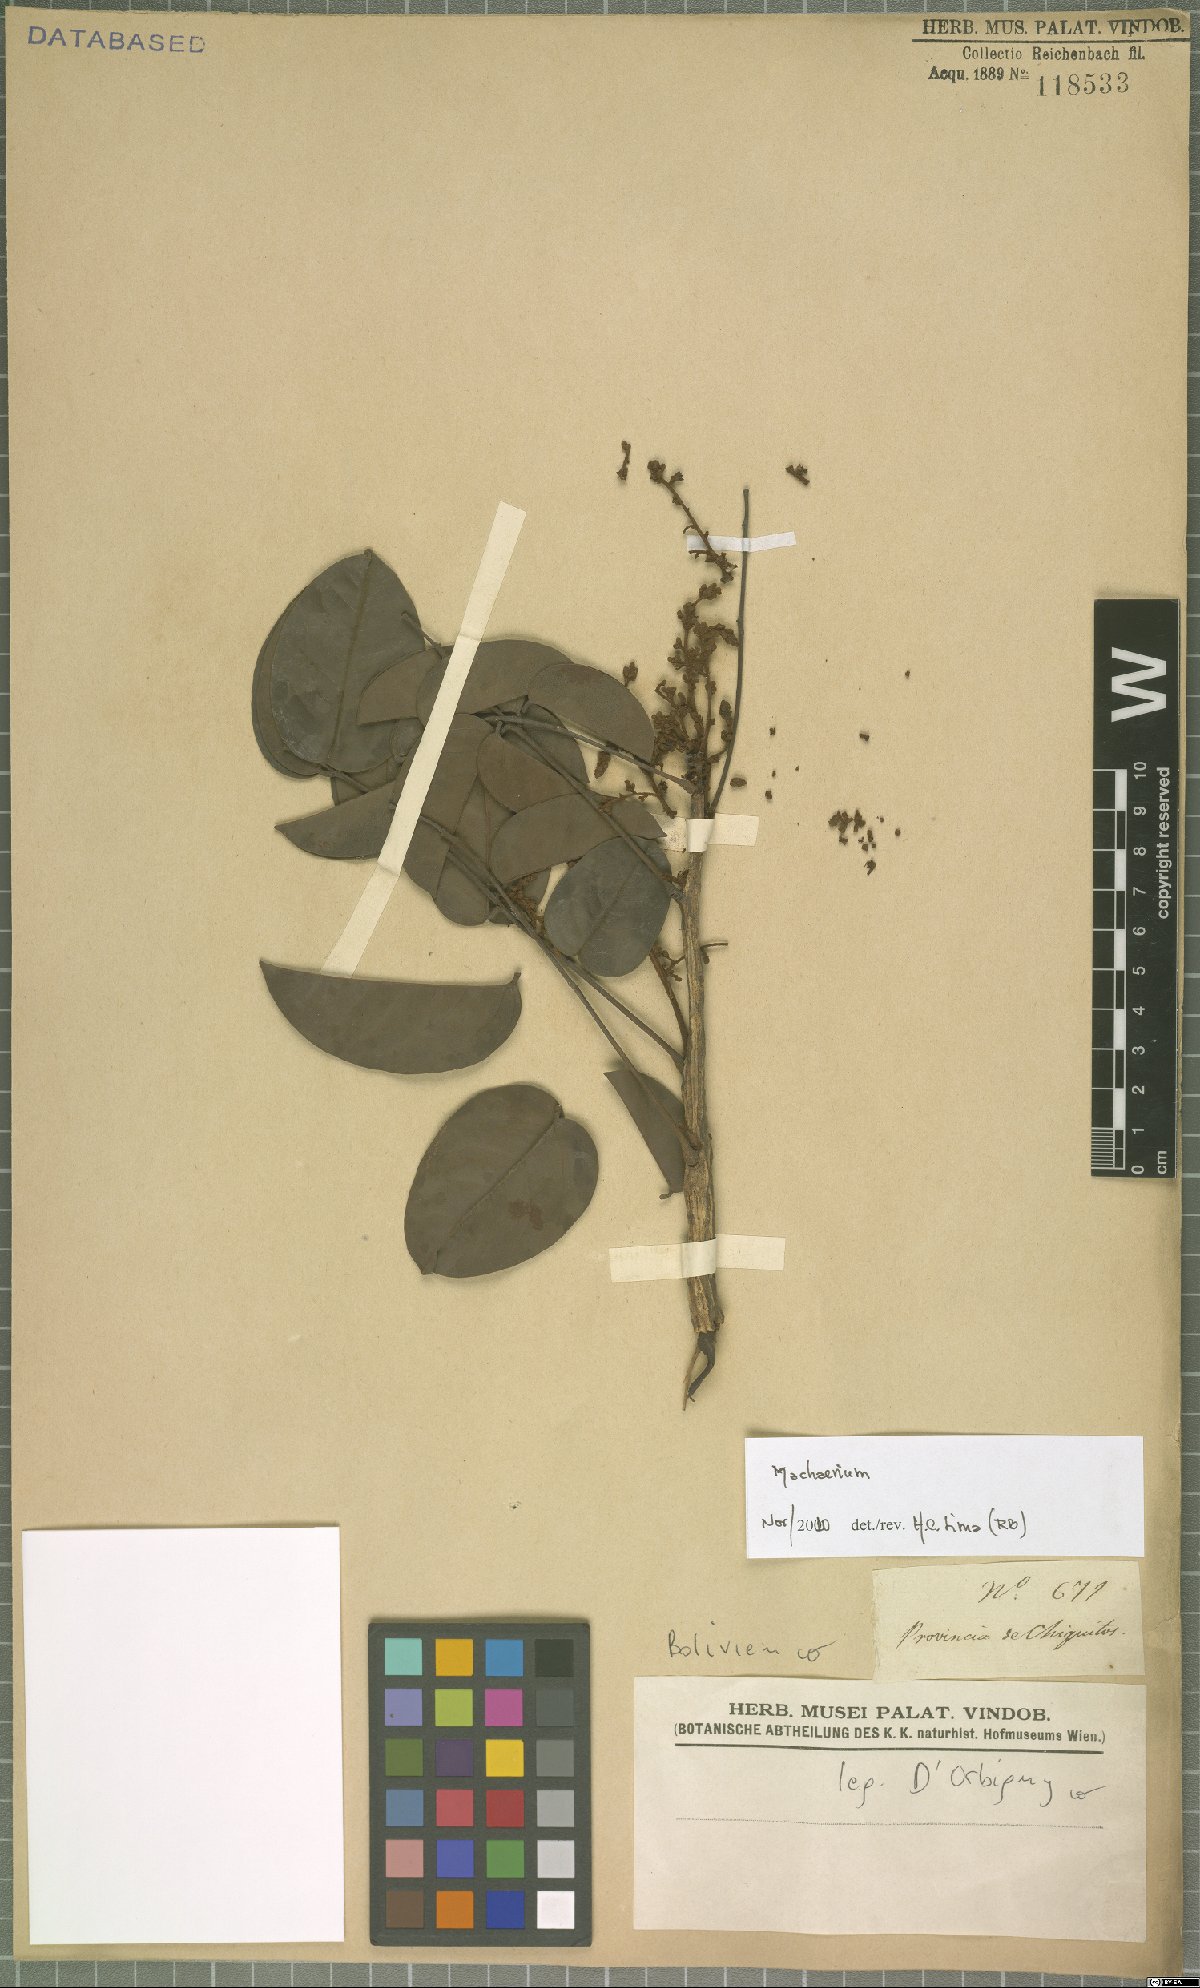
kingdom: Plantae
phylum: Tracheophyta
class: Magnoliopsida
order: Fabales
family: Fabaceae
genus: Machaerium
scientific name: Machaerium
